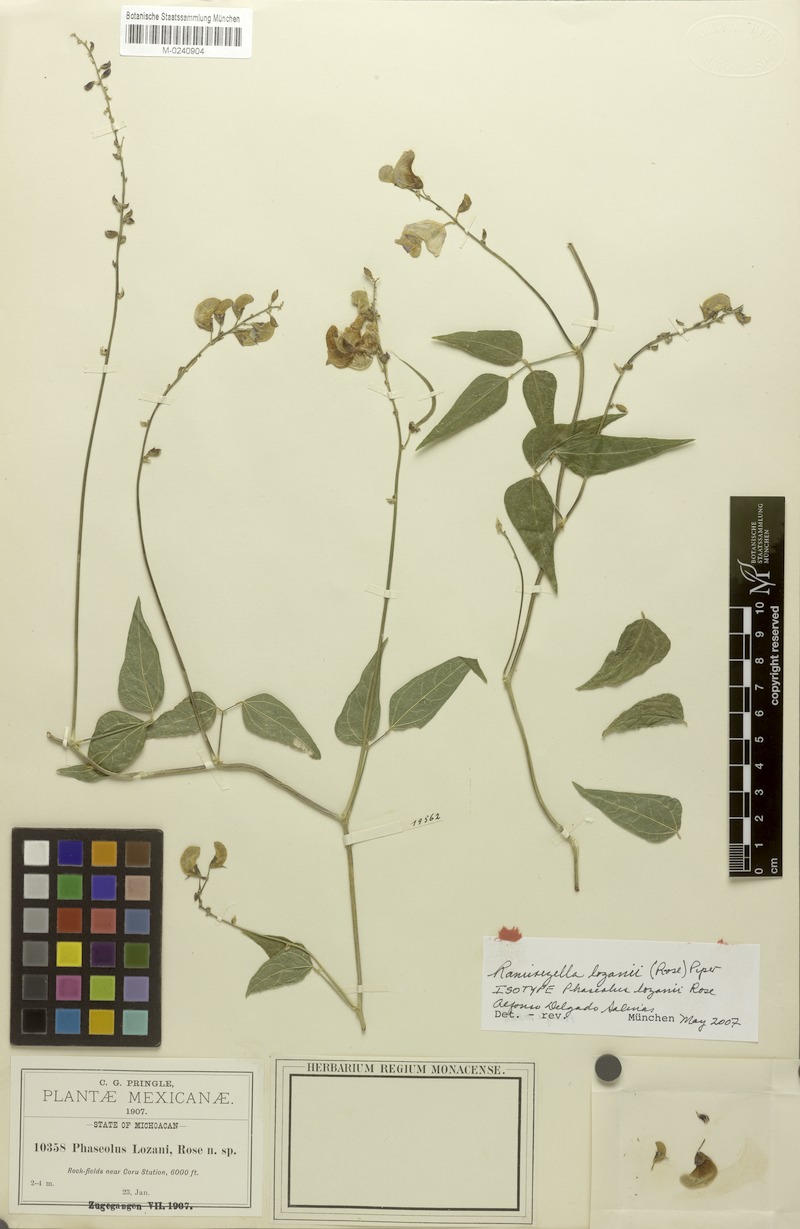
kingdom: Plantae
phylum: Tracheophyta
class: Magnoliopsida
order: Fabales
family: Fabaceae
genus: Ramirezella
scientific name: Ramirezella lozanii
